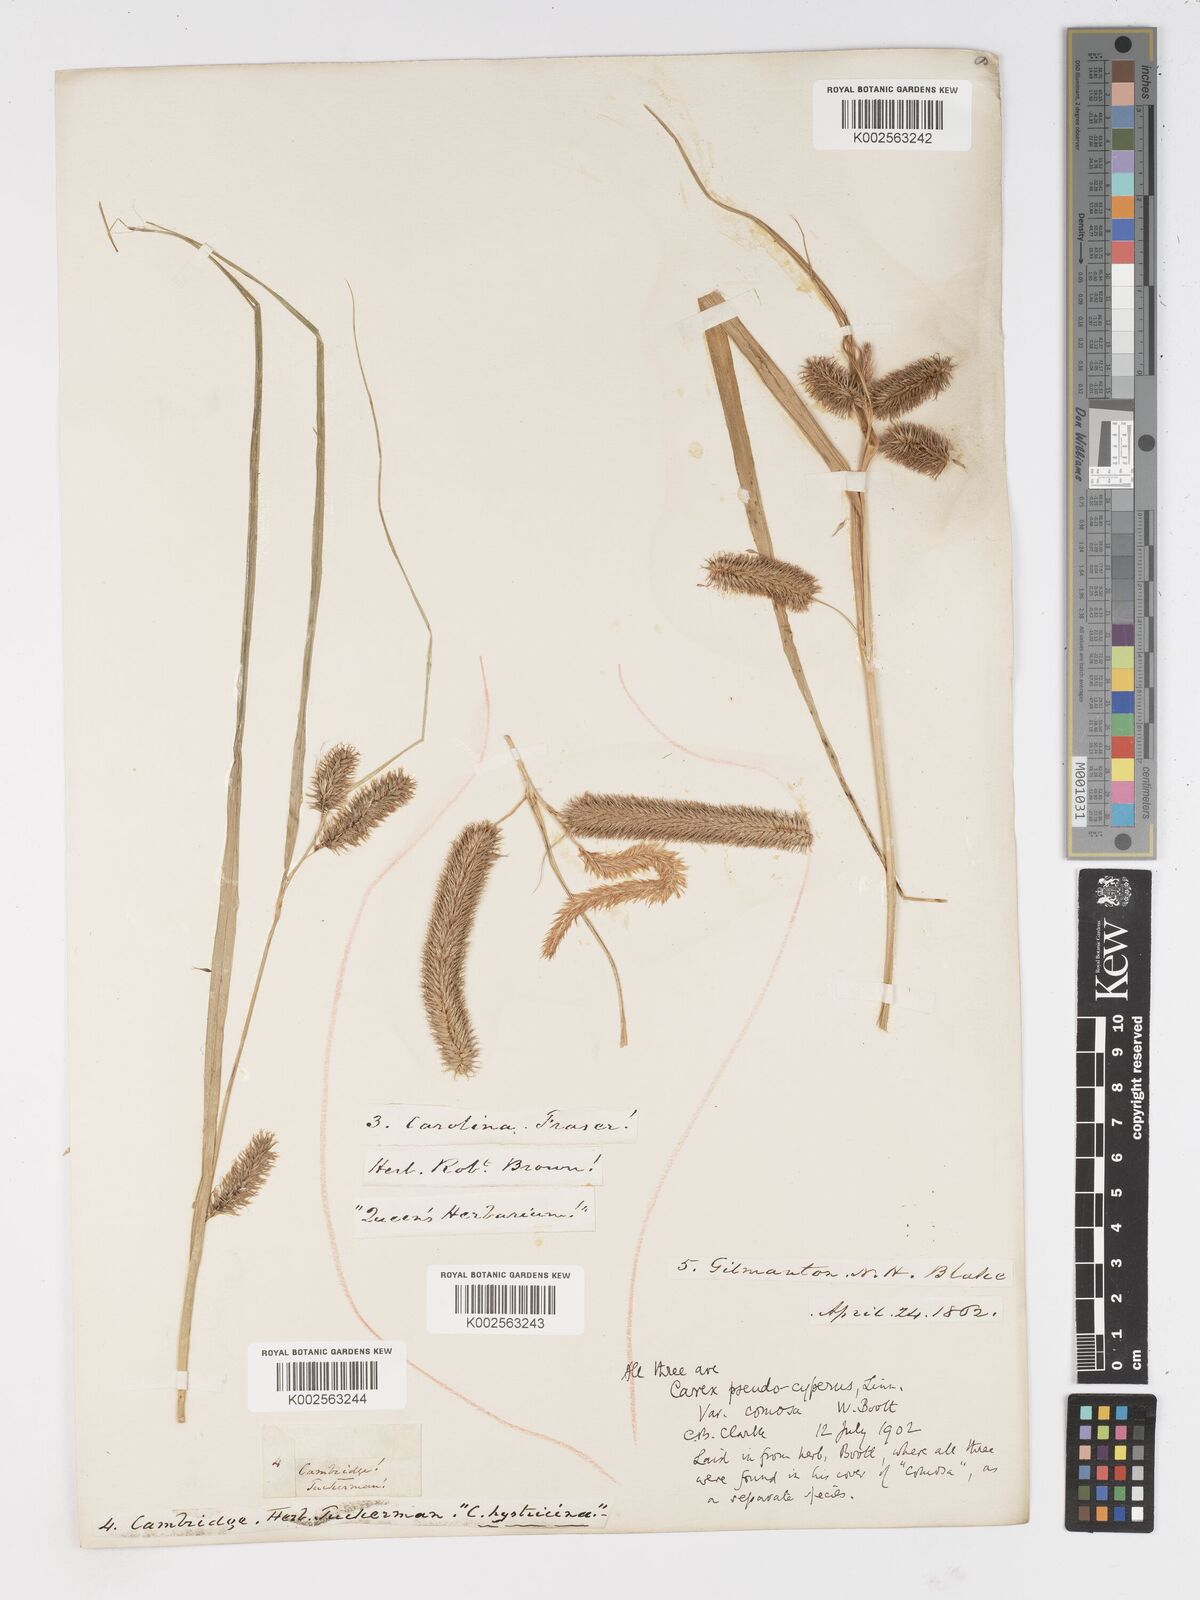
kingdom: Plantae
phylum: Tracheophyta
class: Liliopsida
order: Poales
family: Cyperaceae
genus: Carex
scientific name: Carex comosa
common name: Bristly sedge
